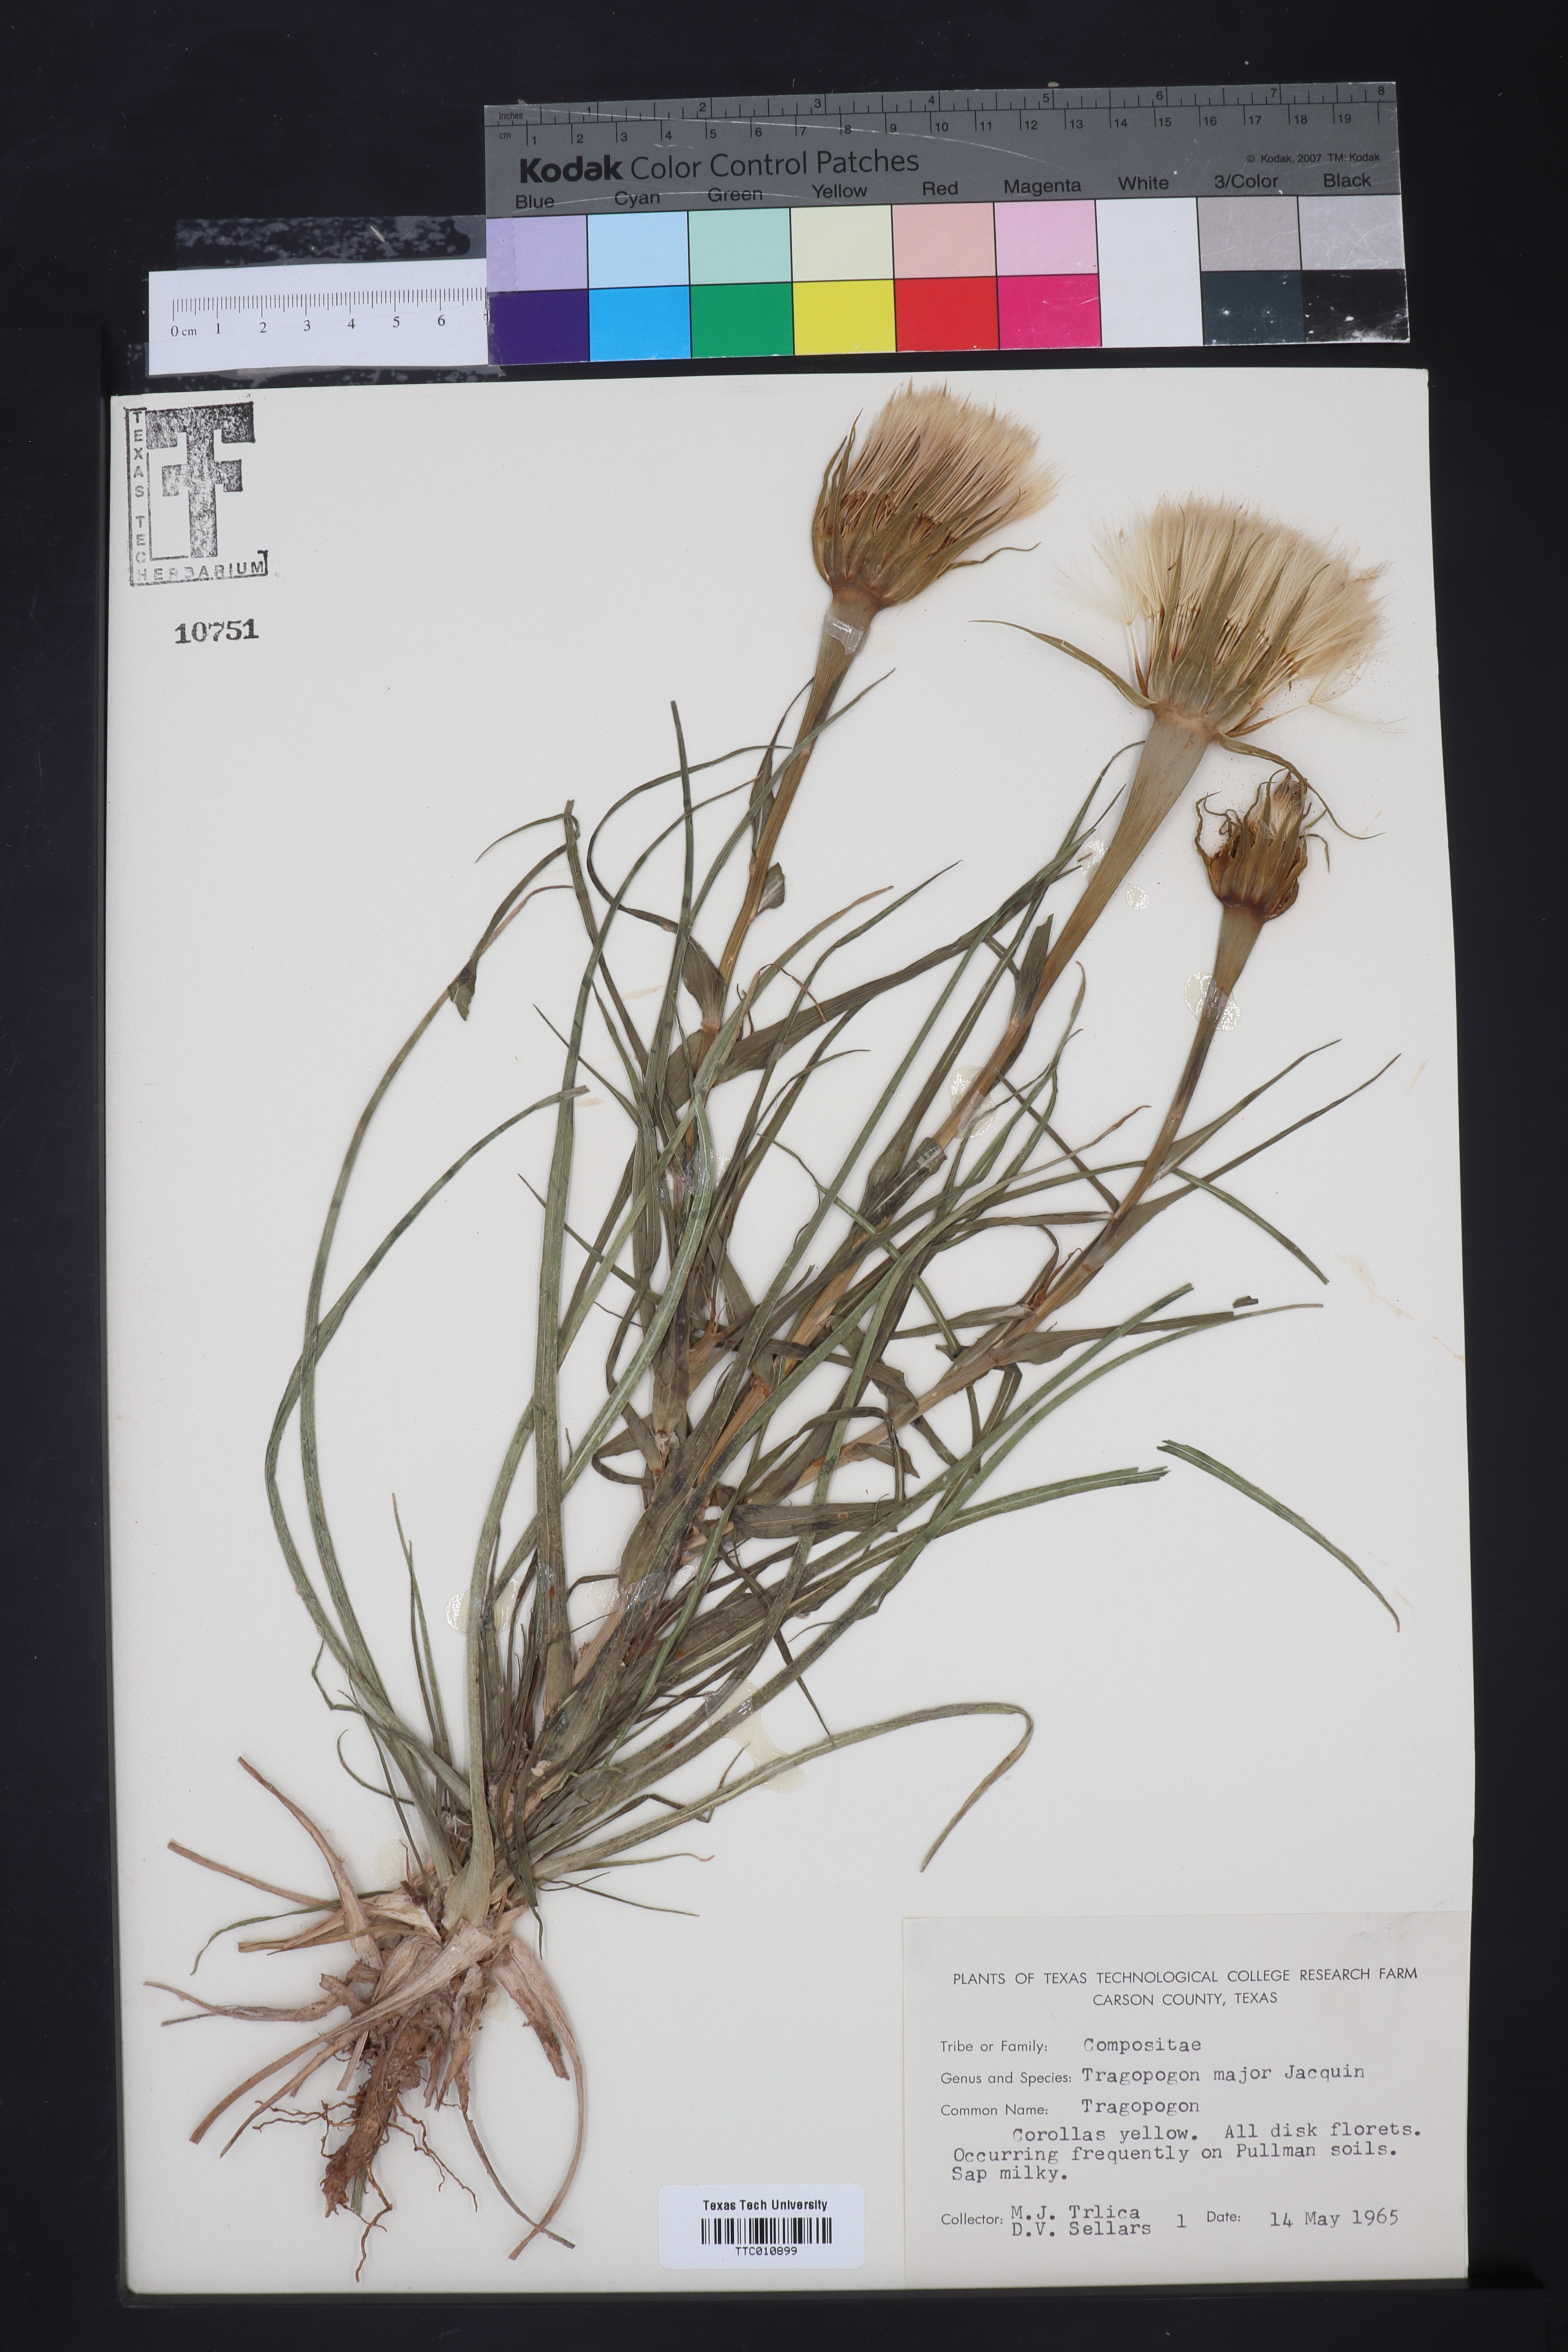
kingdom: Plantae
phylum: Tracheophyta
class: Magnoliopsida
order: Asterales
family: Asteraceae
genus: Tragopogon
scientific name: Tragopogon dubius
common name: Yellow salsify
